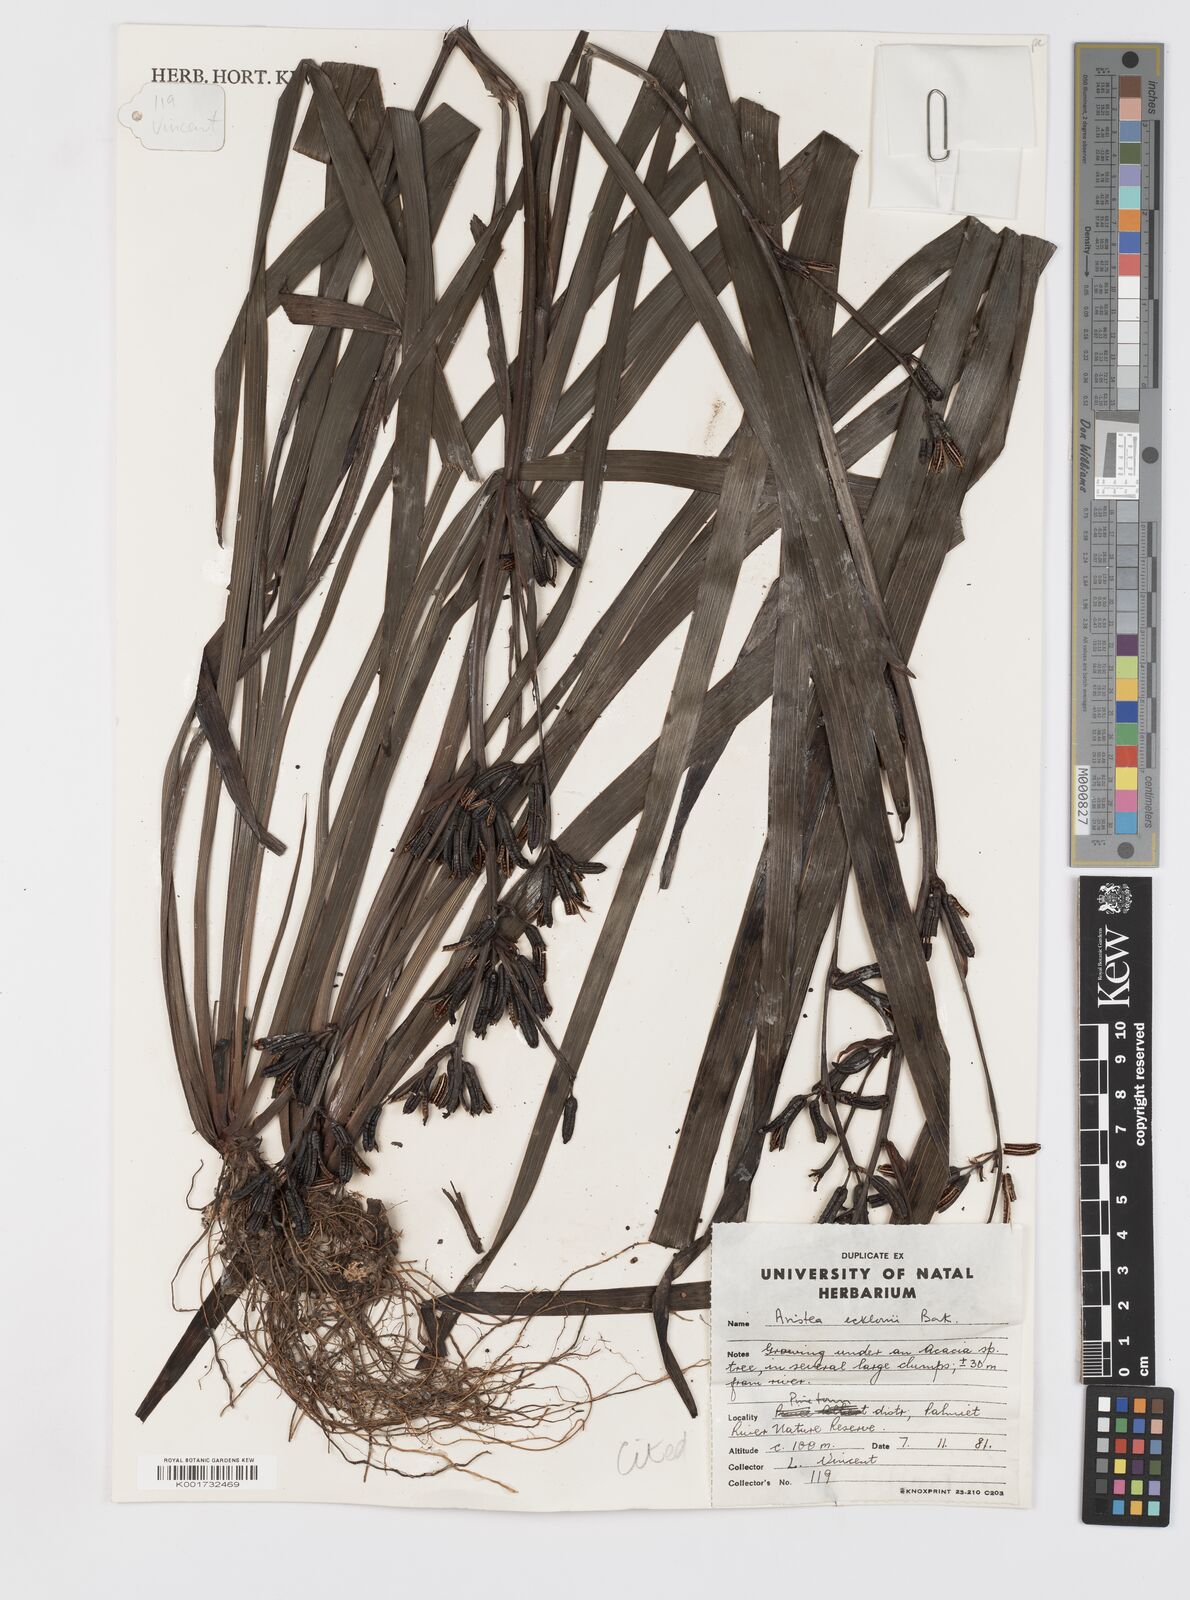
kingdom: Plantae
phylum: Tracheophyta
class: Liliopsida
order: Asparagales
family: Iridaceae
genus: Aristea
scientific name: Aristea ecklonii
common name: Blue corn-lily
